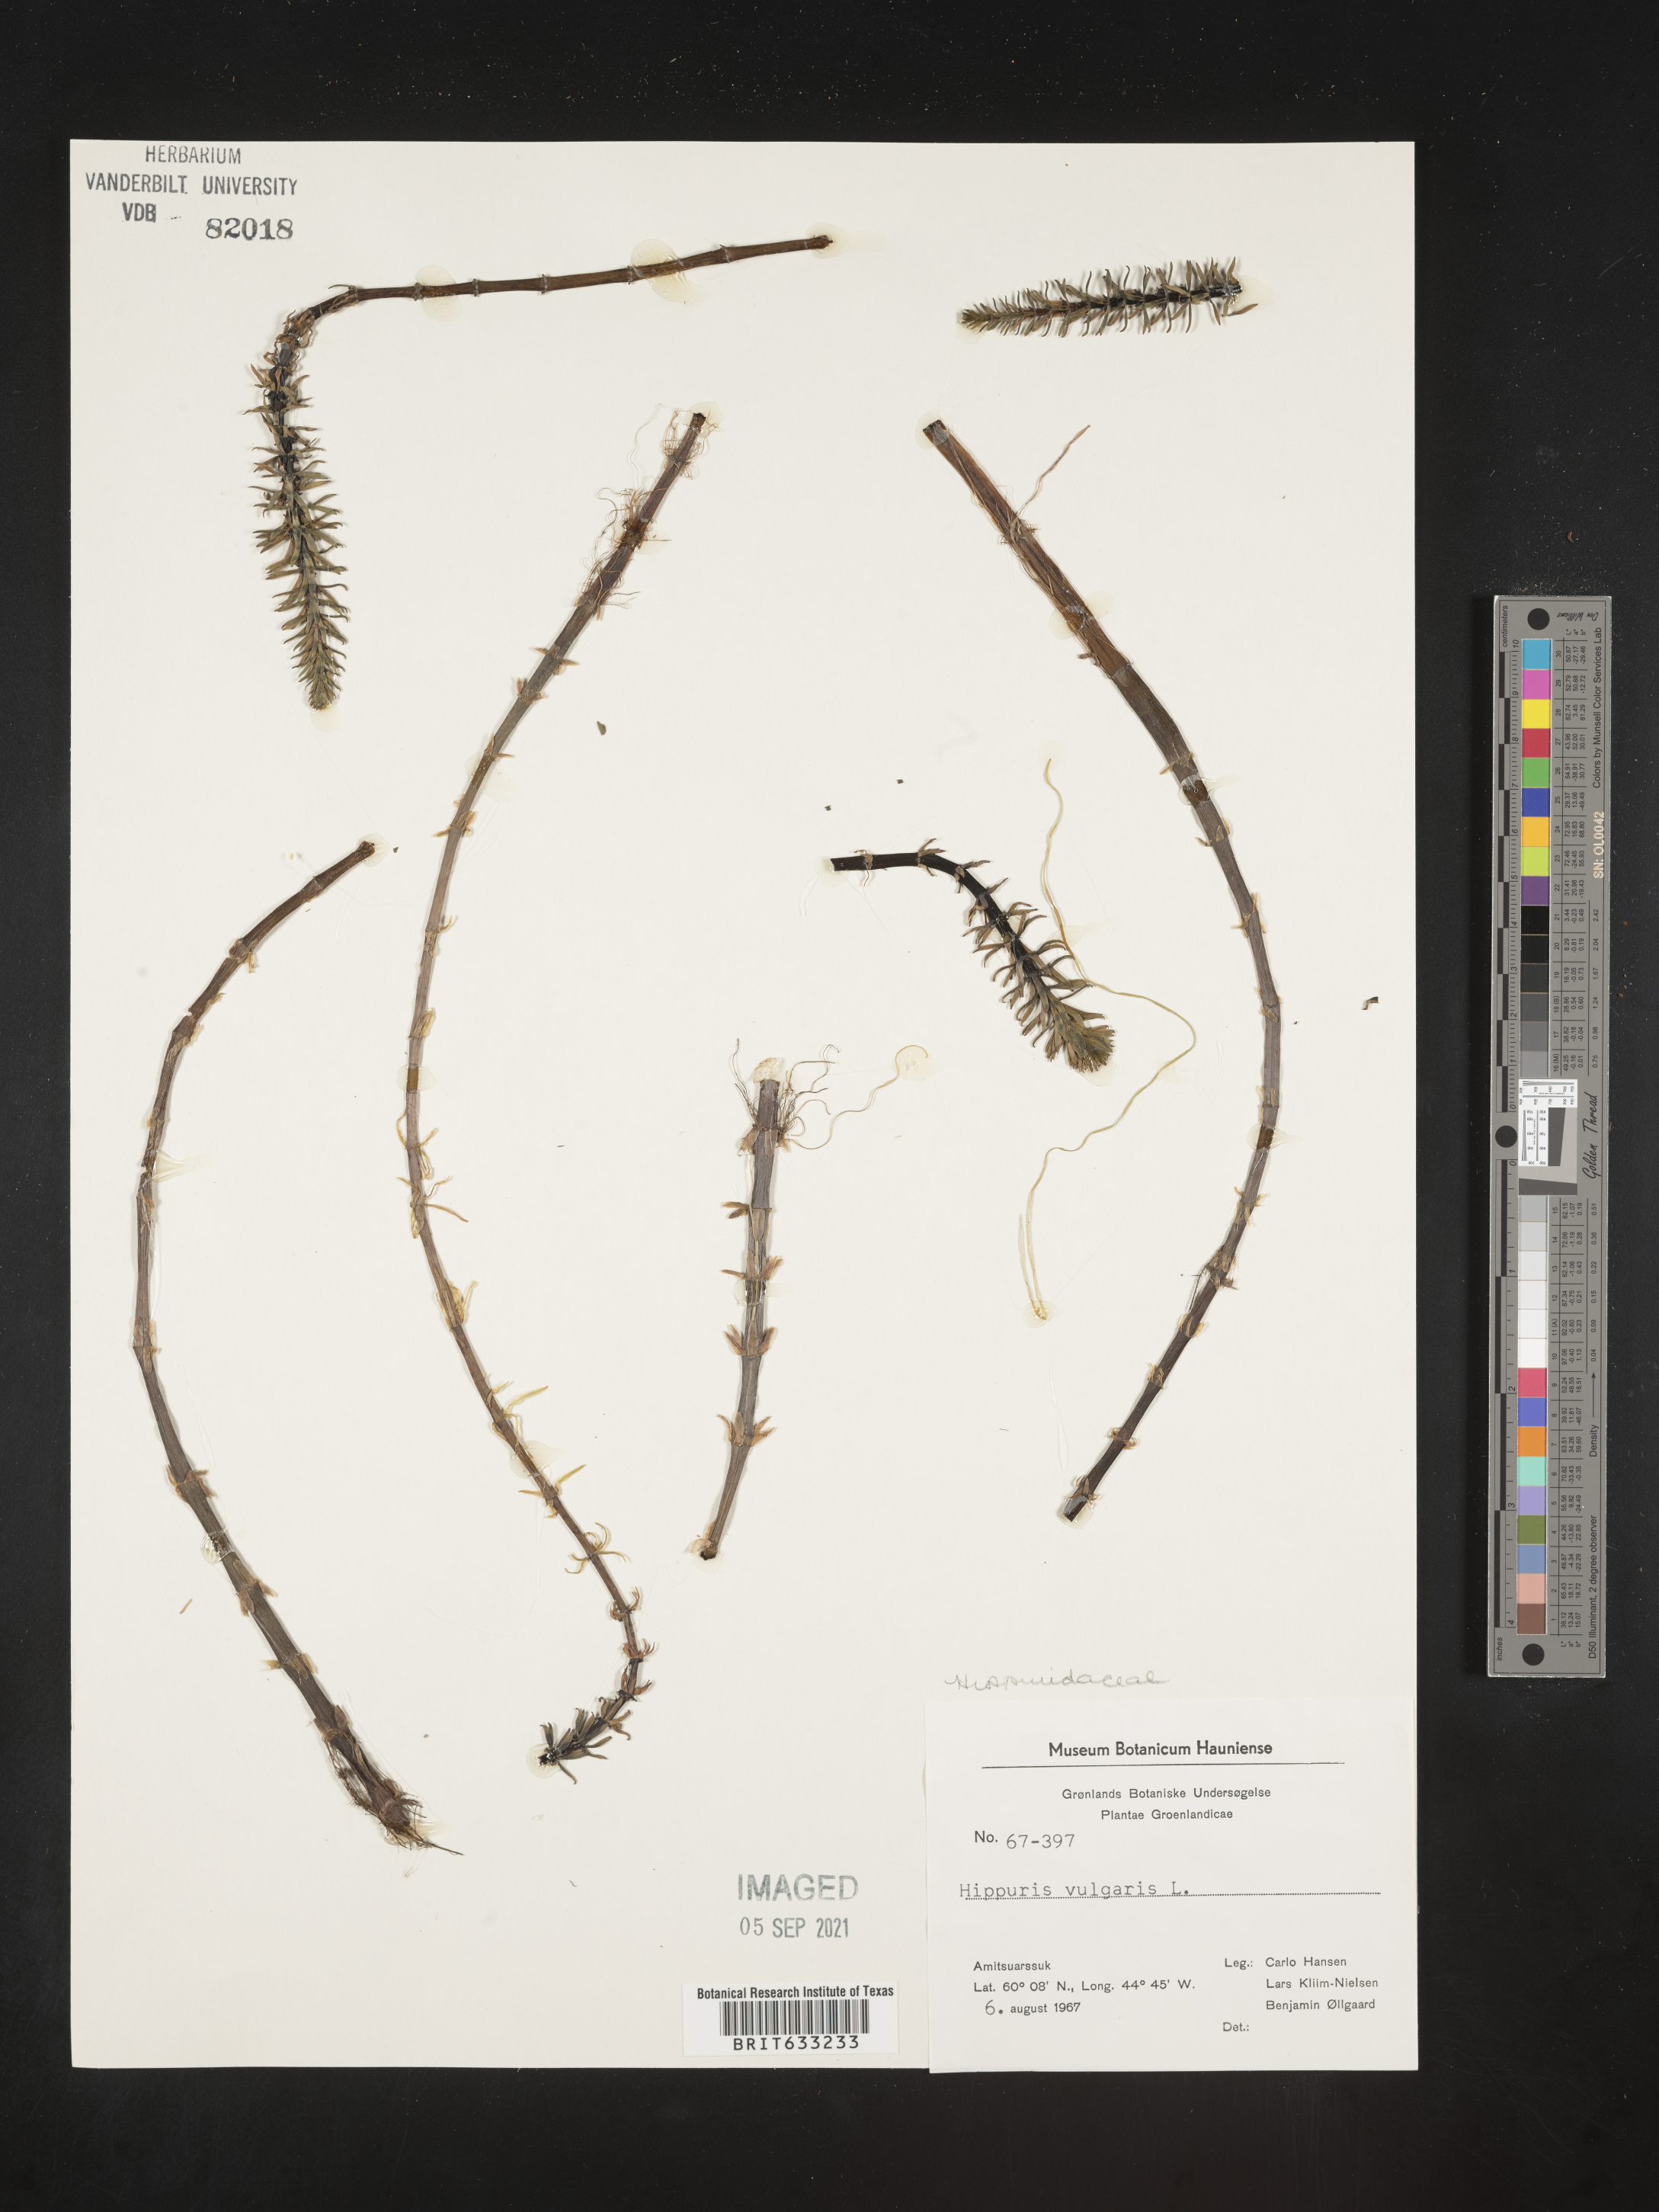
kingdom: Plantae
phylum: Tracheophyta
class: Magnoliopsida
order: Lamiales
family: Plantaginaceae
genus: Hippuris
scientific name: Hippuris
